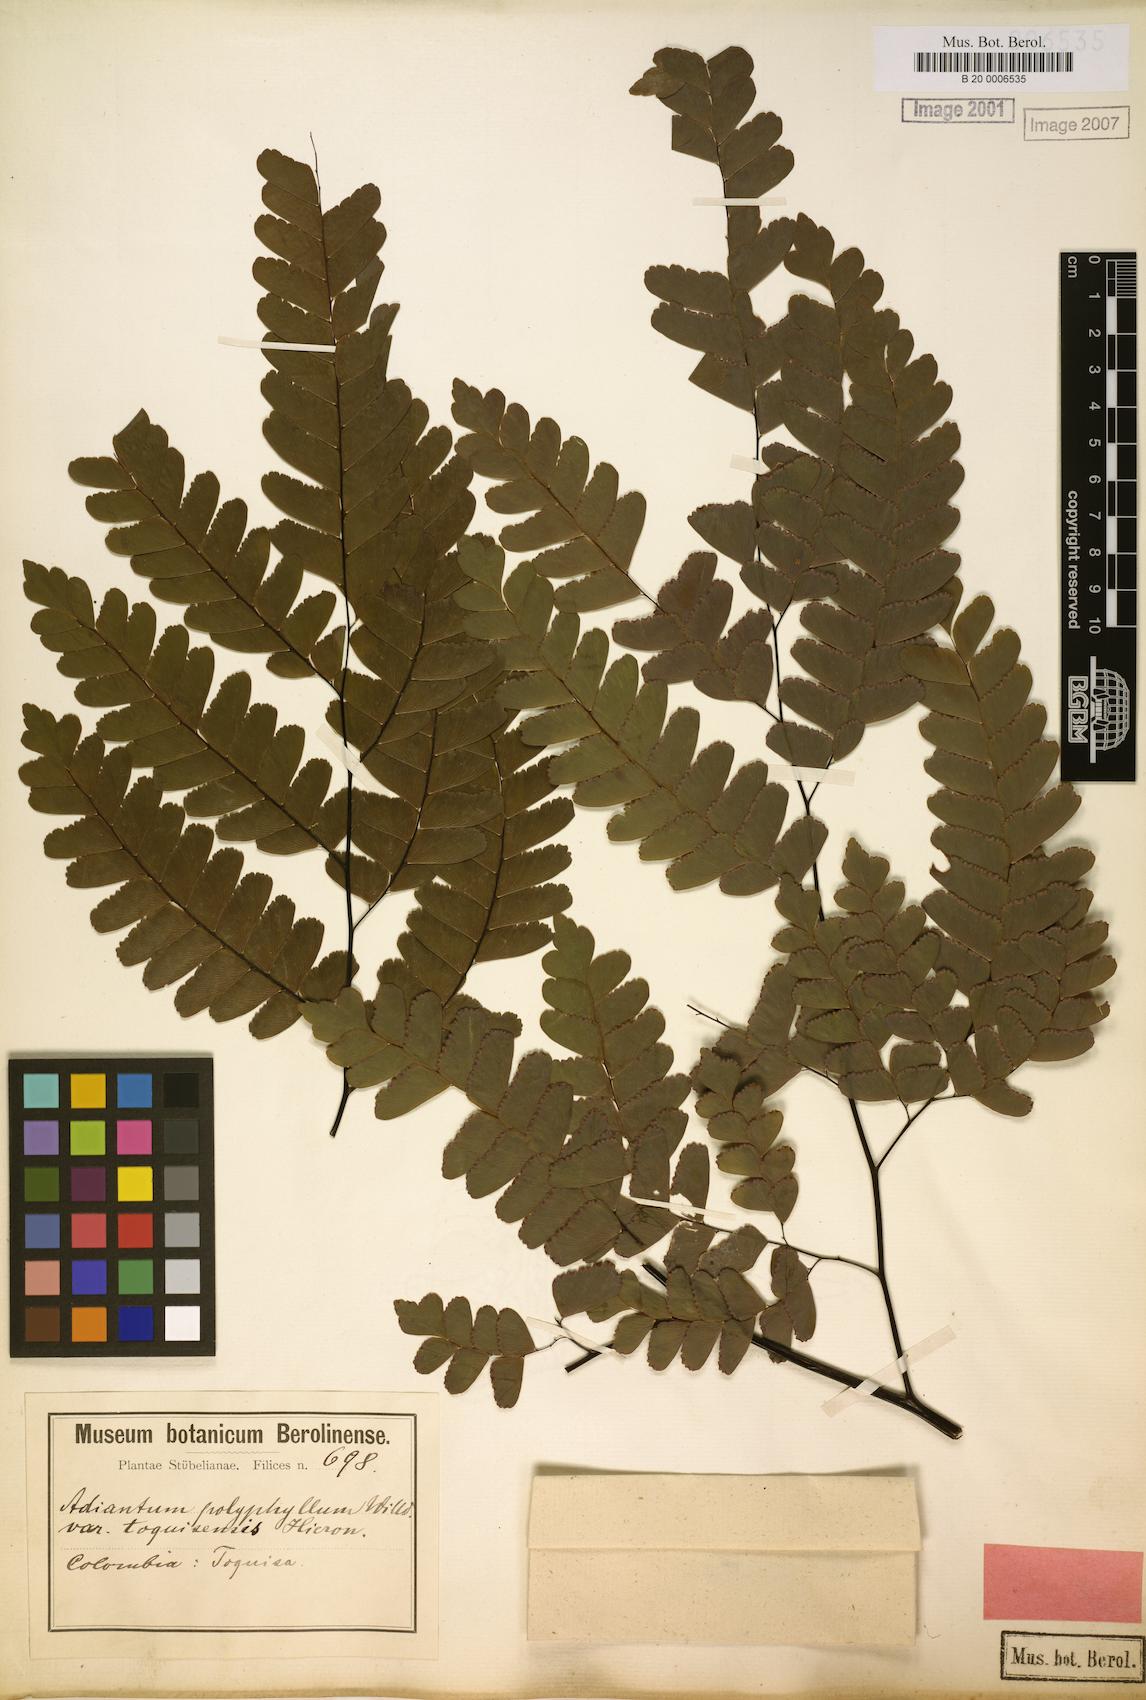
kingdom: Plantae
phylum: Tracheophyta
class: Polypodiopsida
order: Polypodiales
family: Pteridaceae
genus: Adiantum
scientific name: Adiantum polyphyllum
